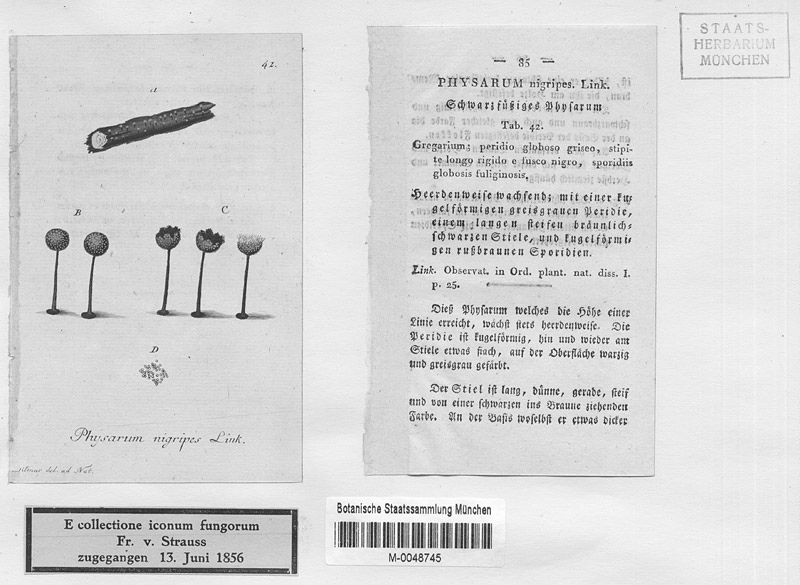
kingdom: Protozoa
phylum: Mycetozoa
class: Myxomycetes
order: Physarales
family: Didymiaceae
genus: Didymium
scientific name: Didymium nigripes
